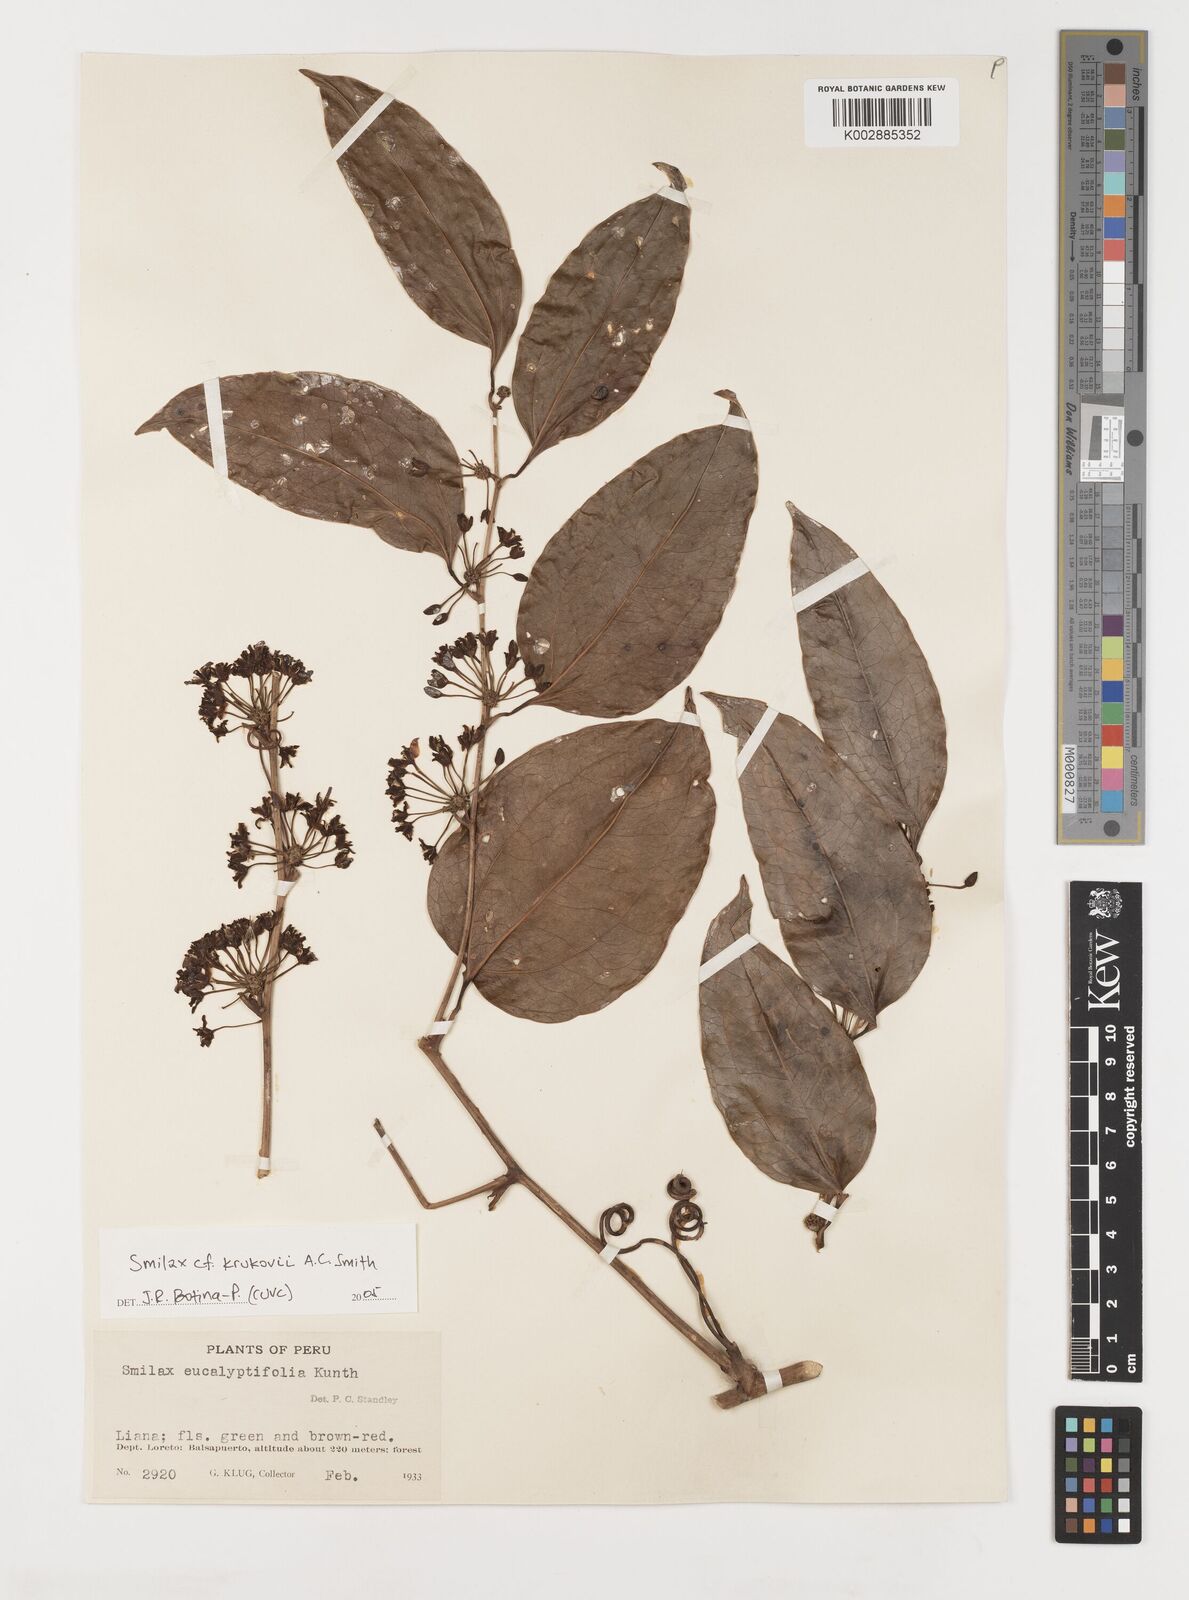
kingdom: Plantae
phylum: Tracheophyta
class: Liliopsida
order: Liliales
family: Smilacaceae
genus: Smilax
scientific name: Smilax domingensis
